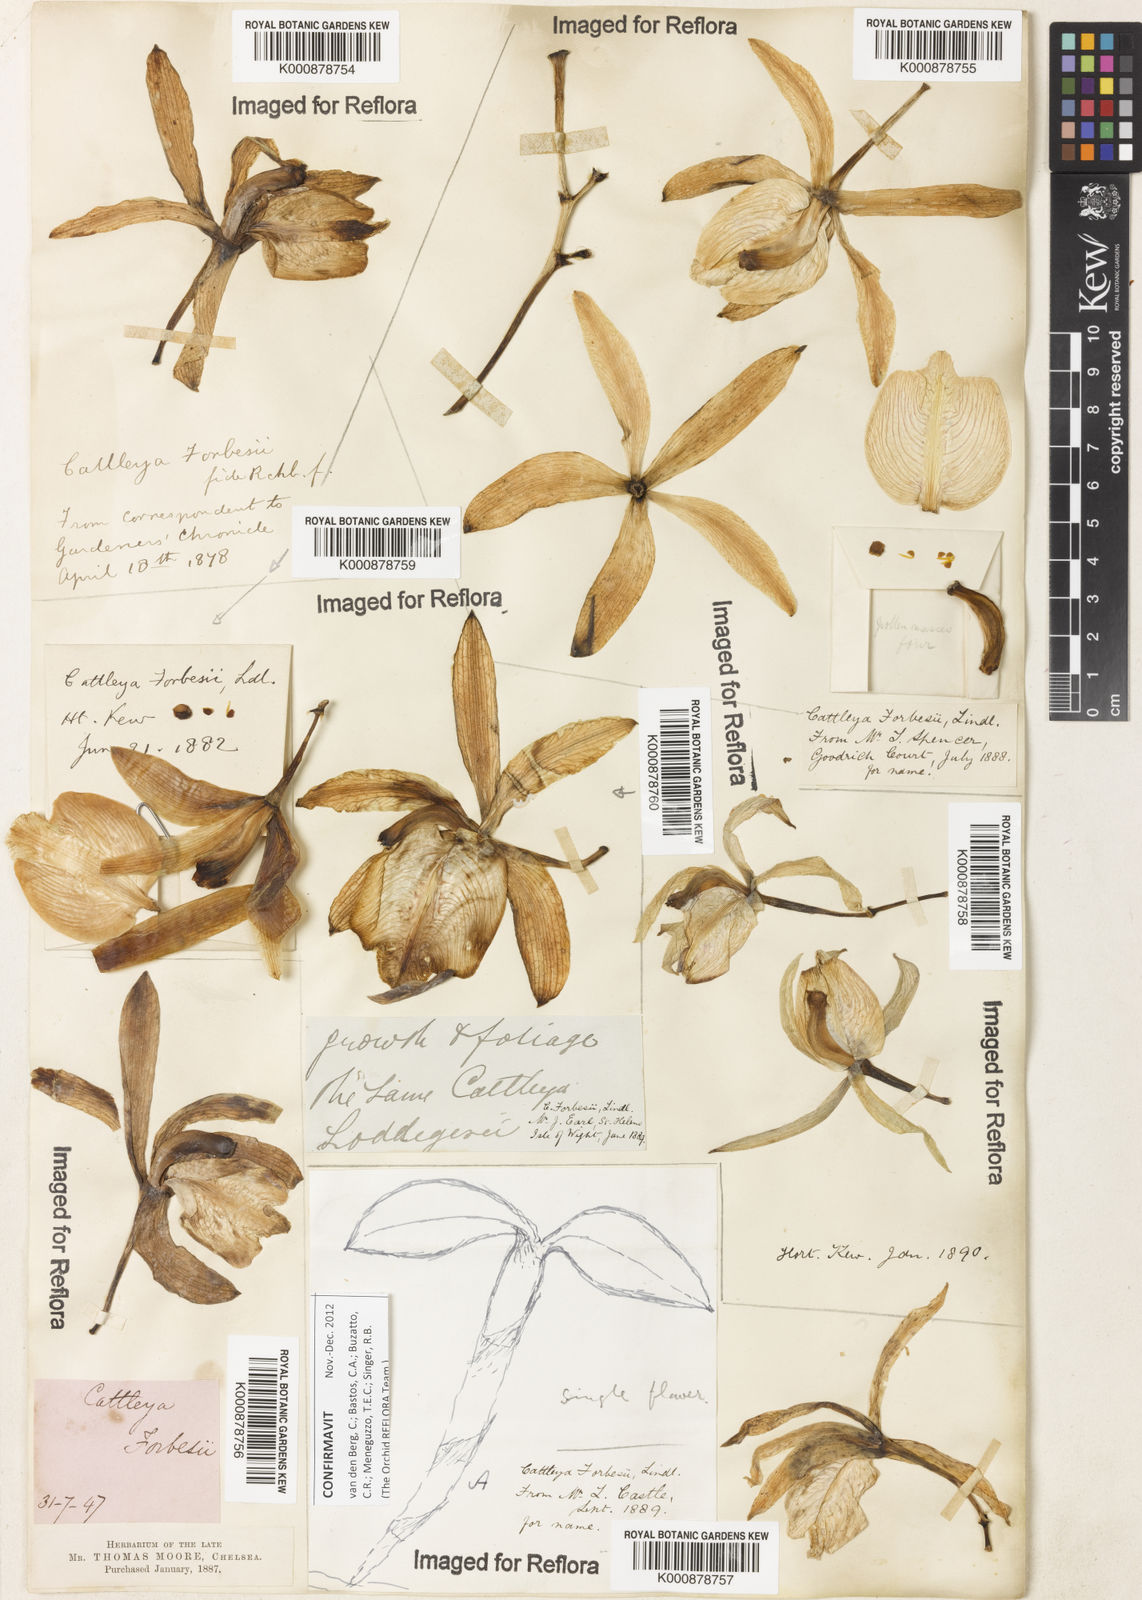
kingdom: Plantae
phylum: Tracheophyta
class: Liliopsida
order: Asparagales
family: Orchidaceae
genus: Cattleya
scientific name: Cattleya forbesii
